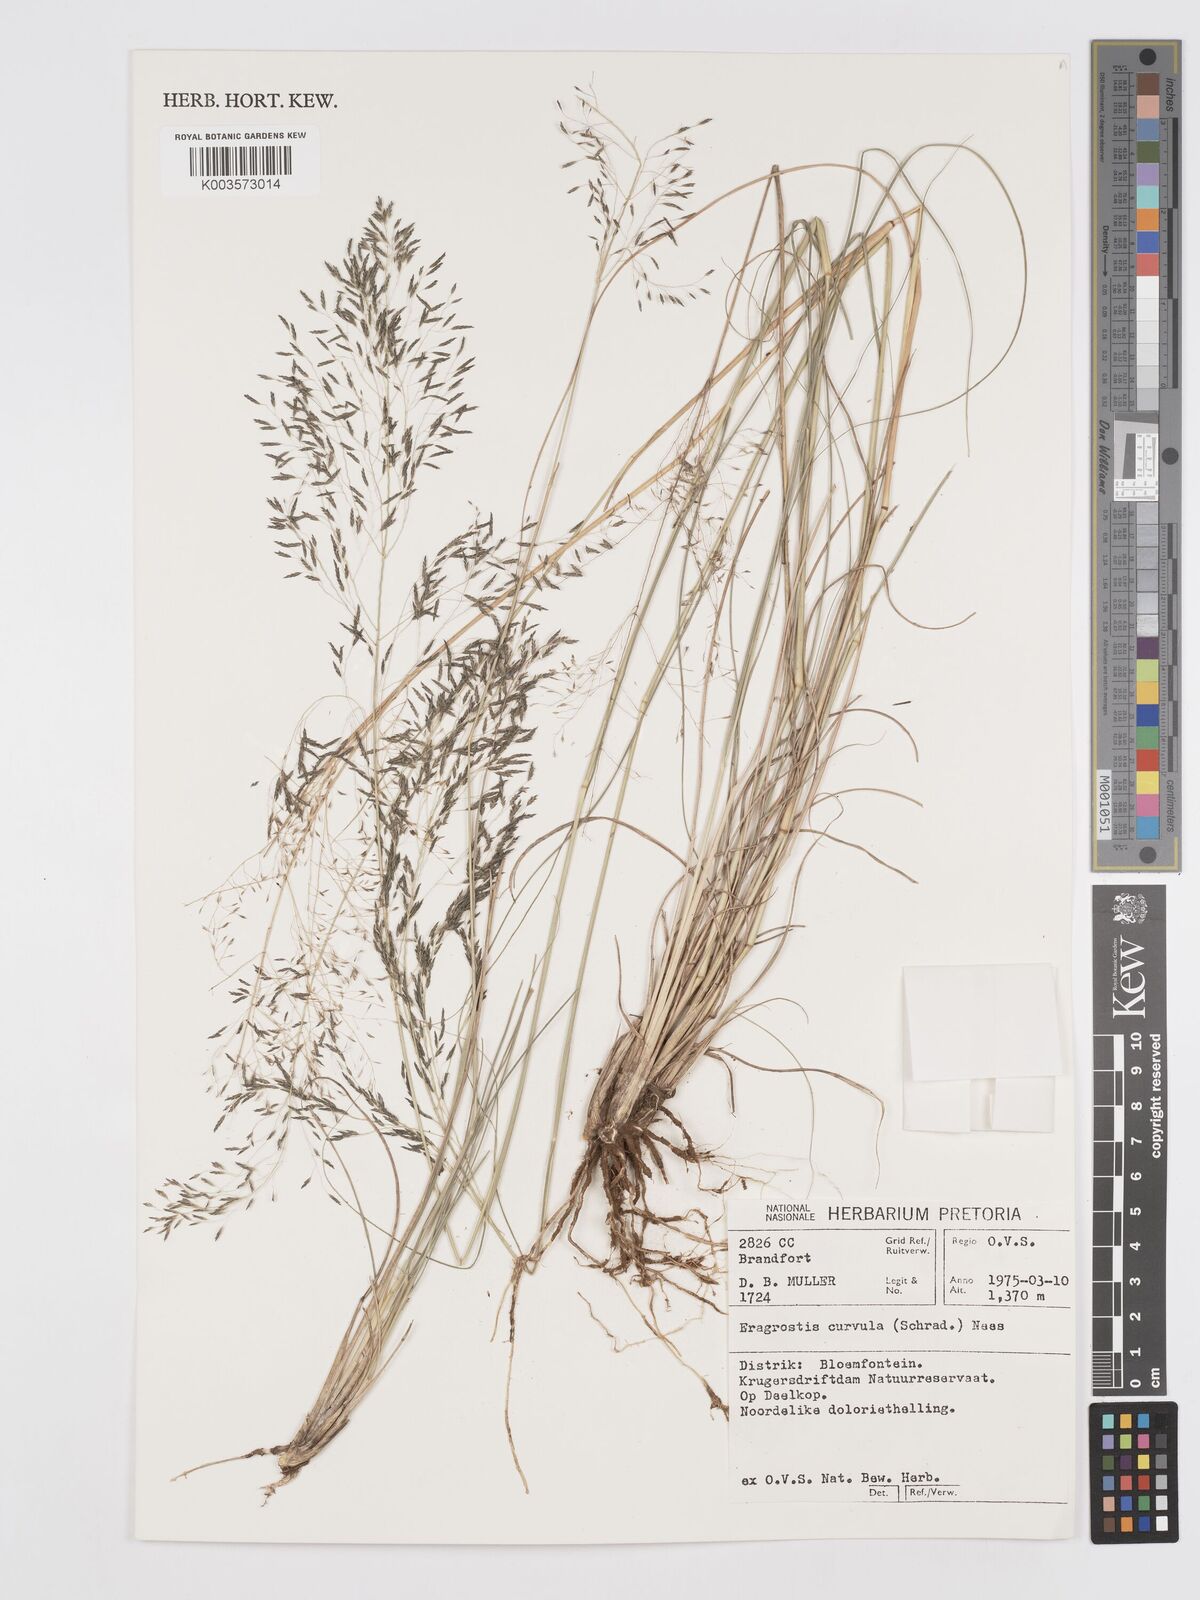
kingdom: Plantae
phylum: Tracheophyta
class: Liliopsida
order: Poales
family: Poaceae
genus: Eragrostis
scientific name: Eragrostis curvula
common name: African love-grass
